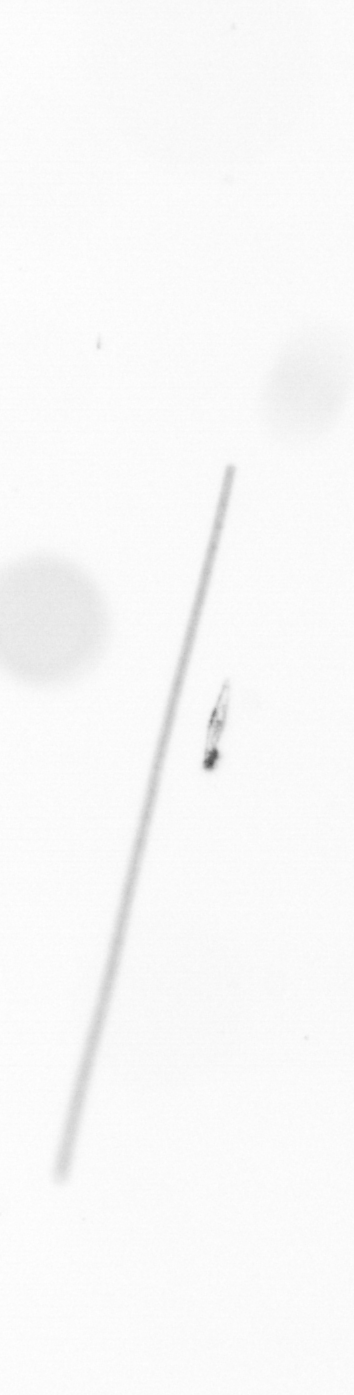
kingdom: Chromista
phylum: Ochrophyta
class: Bacillariophyceae
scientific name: Bacillariophyceae
